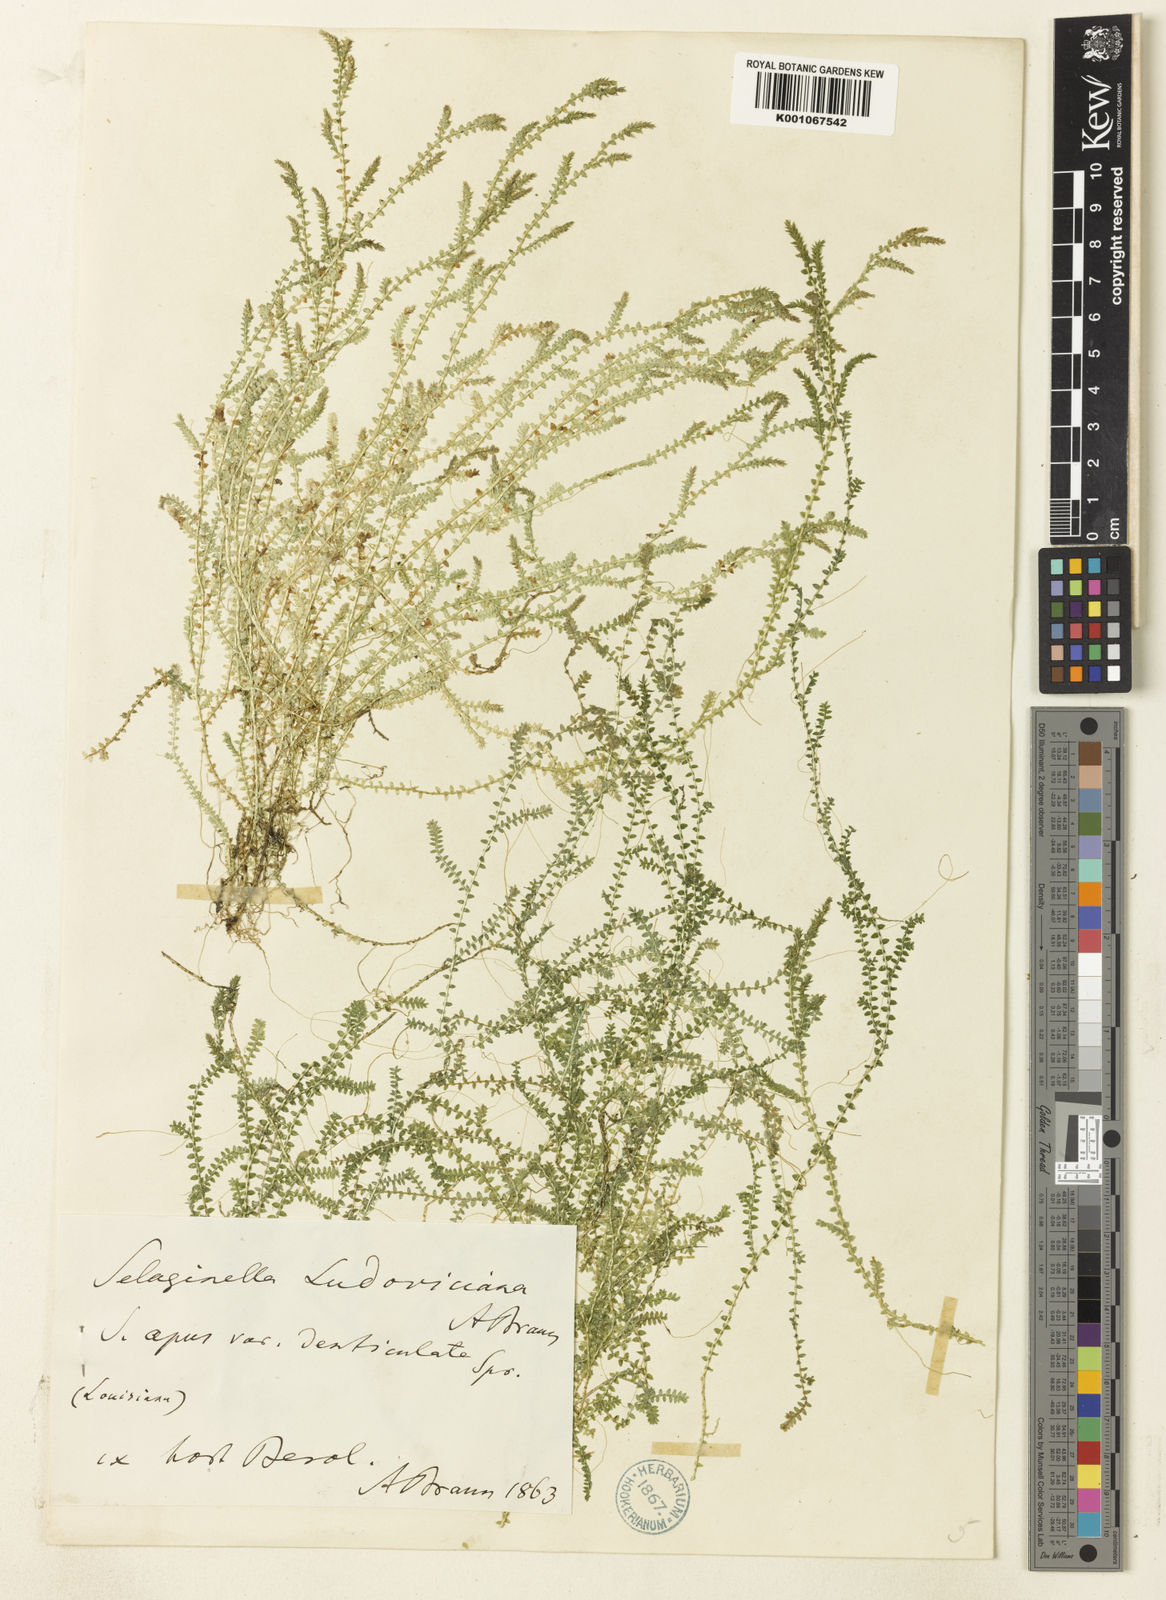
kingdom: Plantae
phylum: Tracheophyta
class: Lycopodiopsida
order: Selaginellales
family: Selaginellaceae
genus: Selaginella
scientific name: Selaginella ludoviciana
